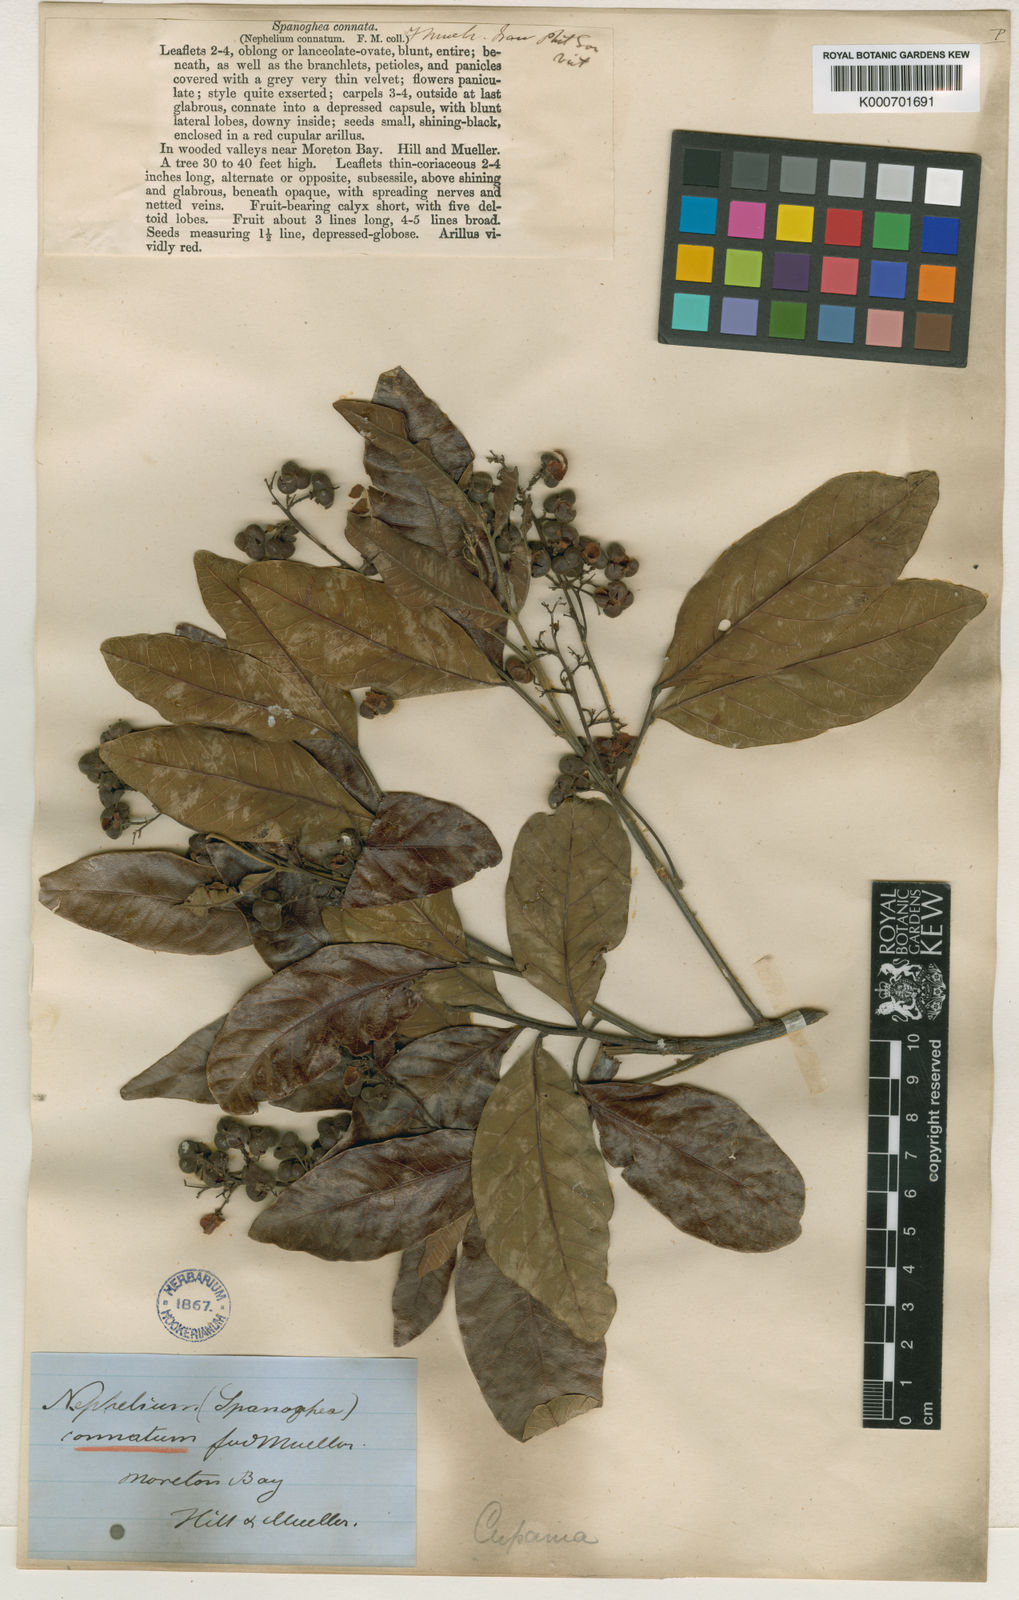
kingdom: Plantae
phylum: Tracheophyta
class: Magnoliopsida
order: Sapindales
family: Sapindaceae
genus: Alectryon
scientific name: Alectryon connatus
